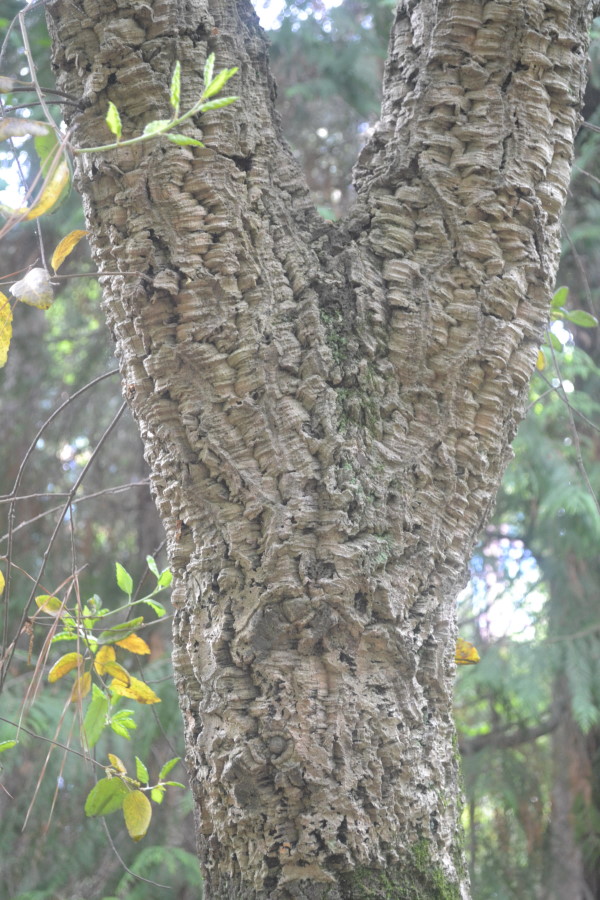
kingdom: Plantae
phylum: Tracheophyta
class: Magnoliopsida
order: Fagales
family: Fagaceae
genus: Quercus
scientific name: Quercus suber
